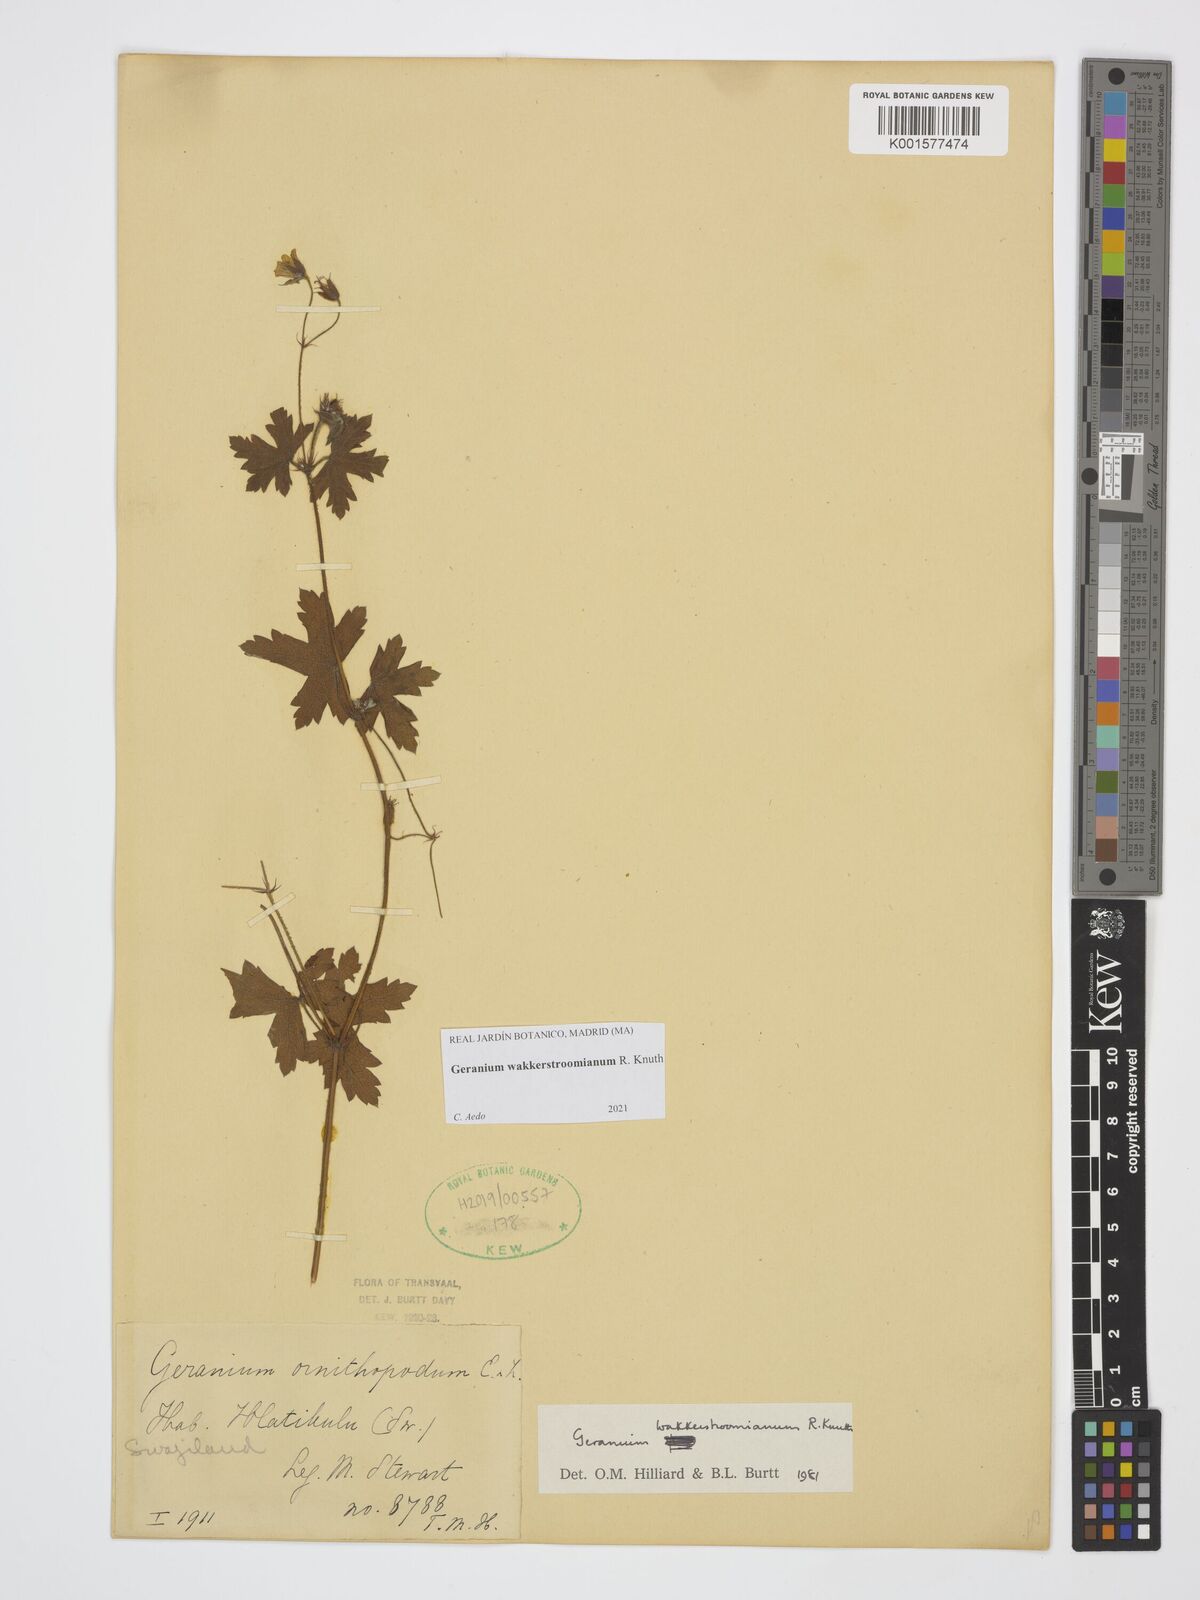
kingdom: Plantae
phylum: Tracheophyta
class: Magnoliopsida
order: Geraniales
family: Geraniaceae
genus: Geranium
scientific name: Geranium wakkerstroomianum
